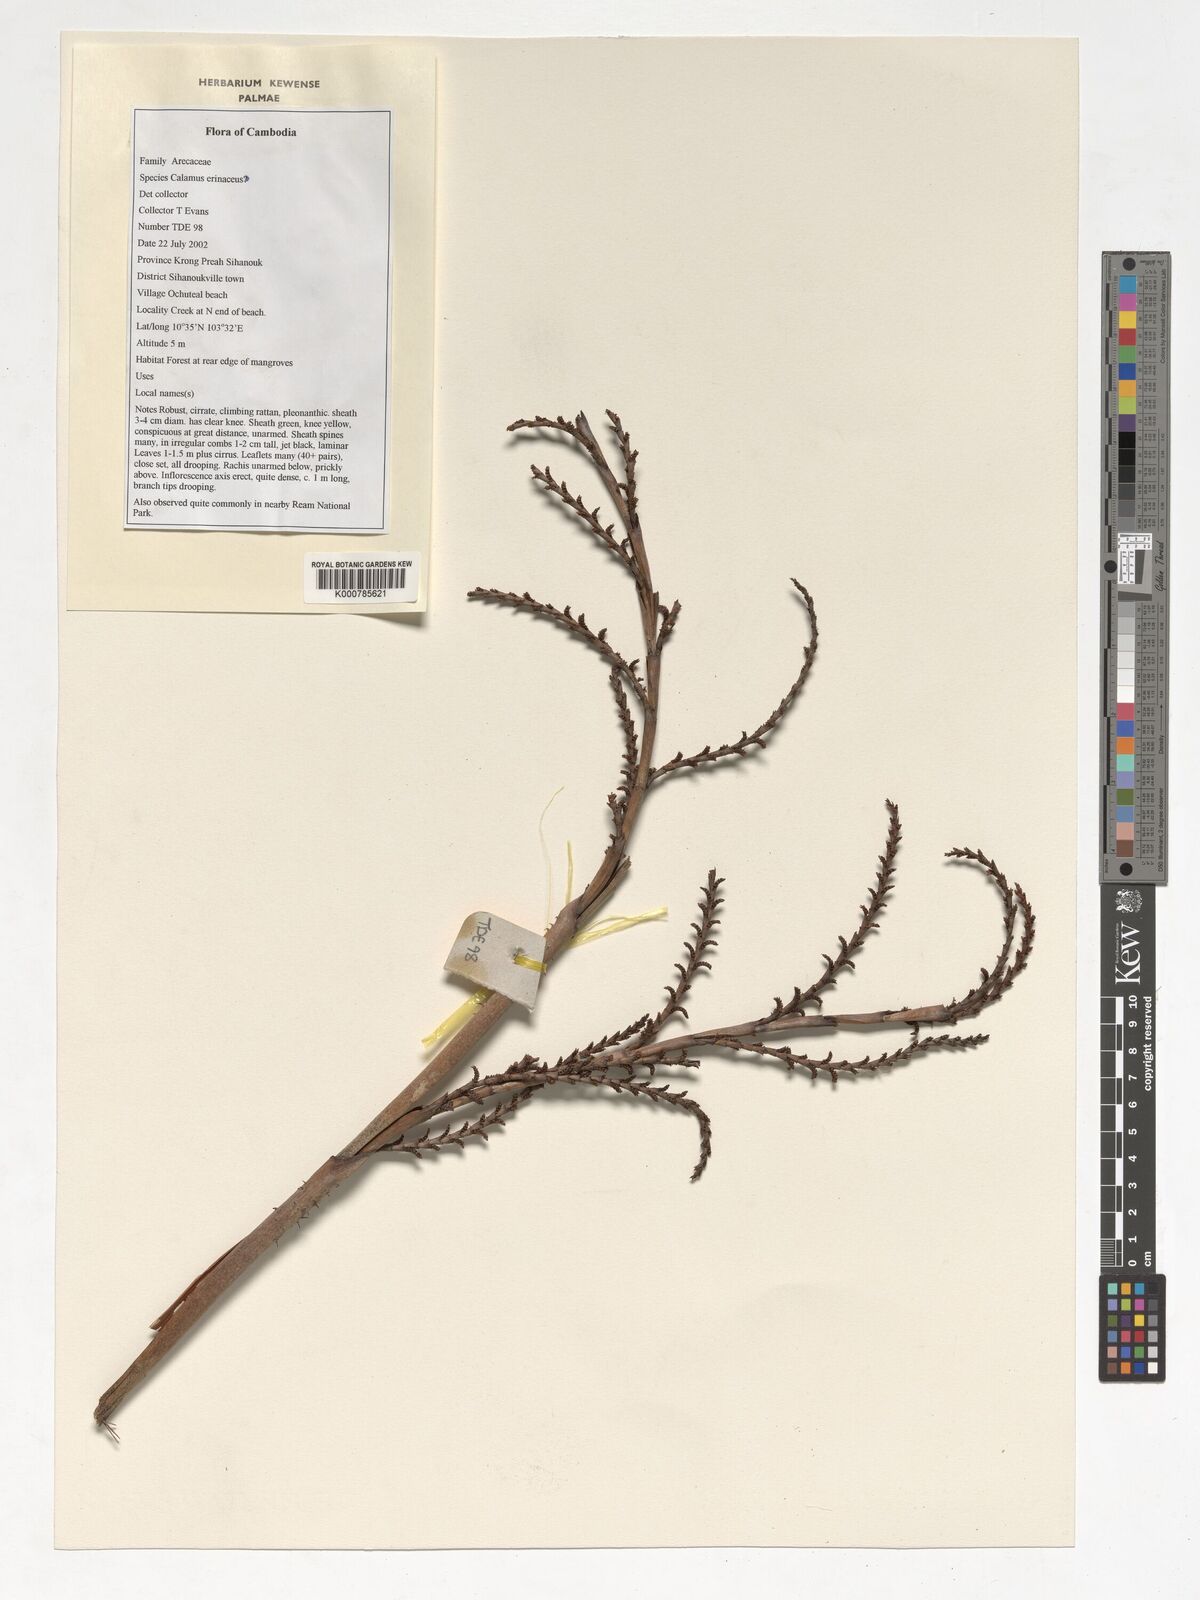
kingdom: Plantae
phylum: Tracheophyta
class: Liliopsida
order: Arecales
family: Arecaceae
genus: Calamus
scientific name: Calamus erinaceus
